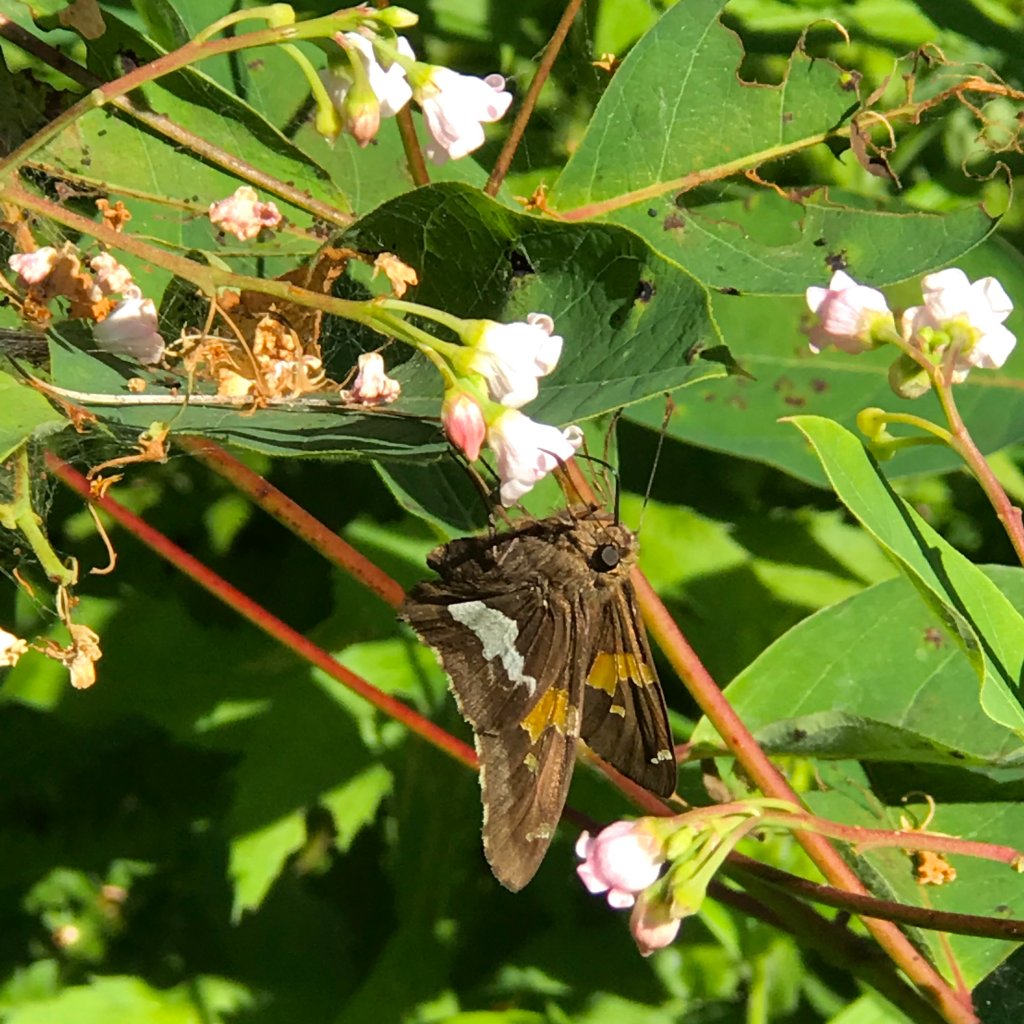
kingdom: Animalia
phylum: Arthropoda
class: Insecta
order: Lepidoptera
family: Hesperiidae
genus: Epargyreus
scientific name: Epargyreus clarus
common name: Silver-spotted Skipper
